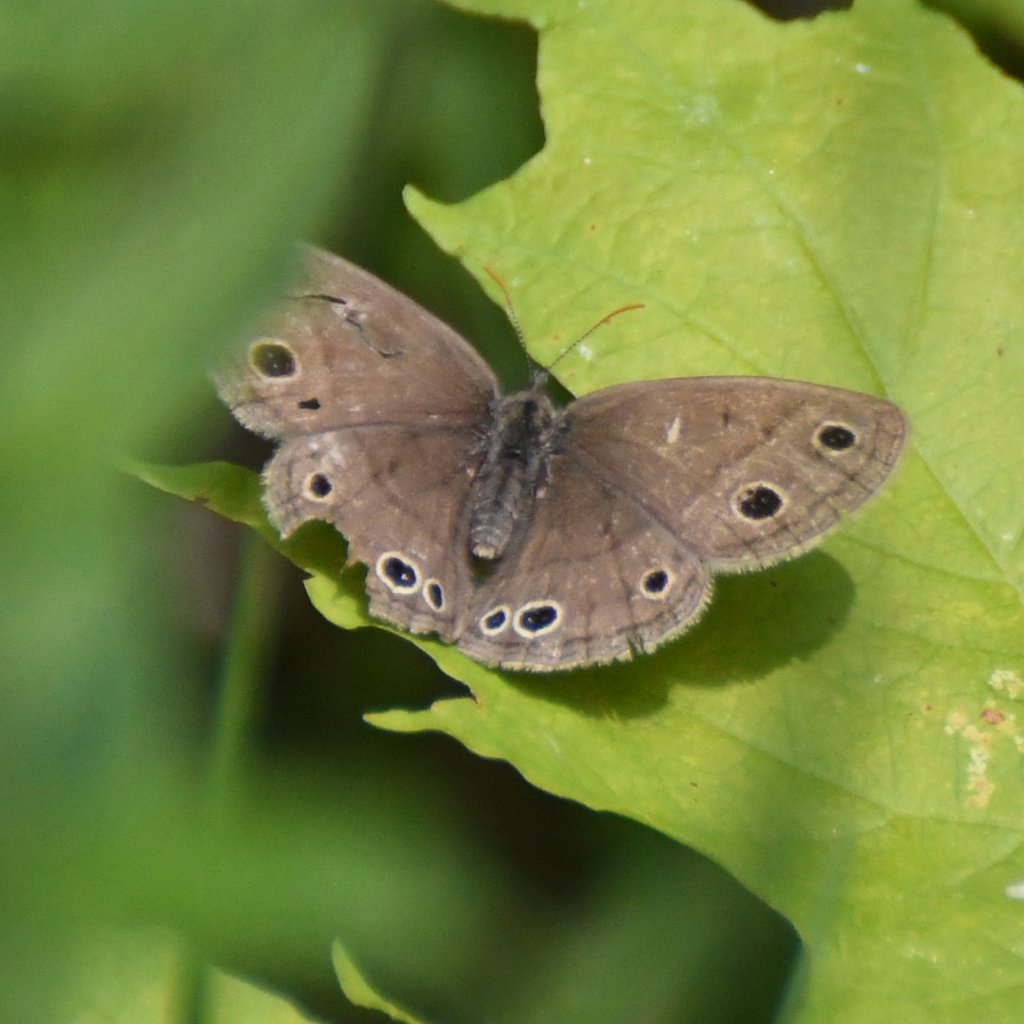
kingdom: Animalia
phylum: Arthropoda
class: Insecta
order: Lepidoptera
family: Nymphalidae
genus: Euptychia
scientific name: Euptychia cymela
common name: Little Wood Satyr
